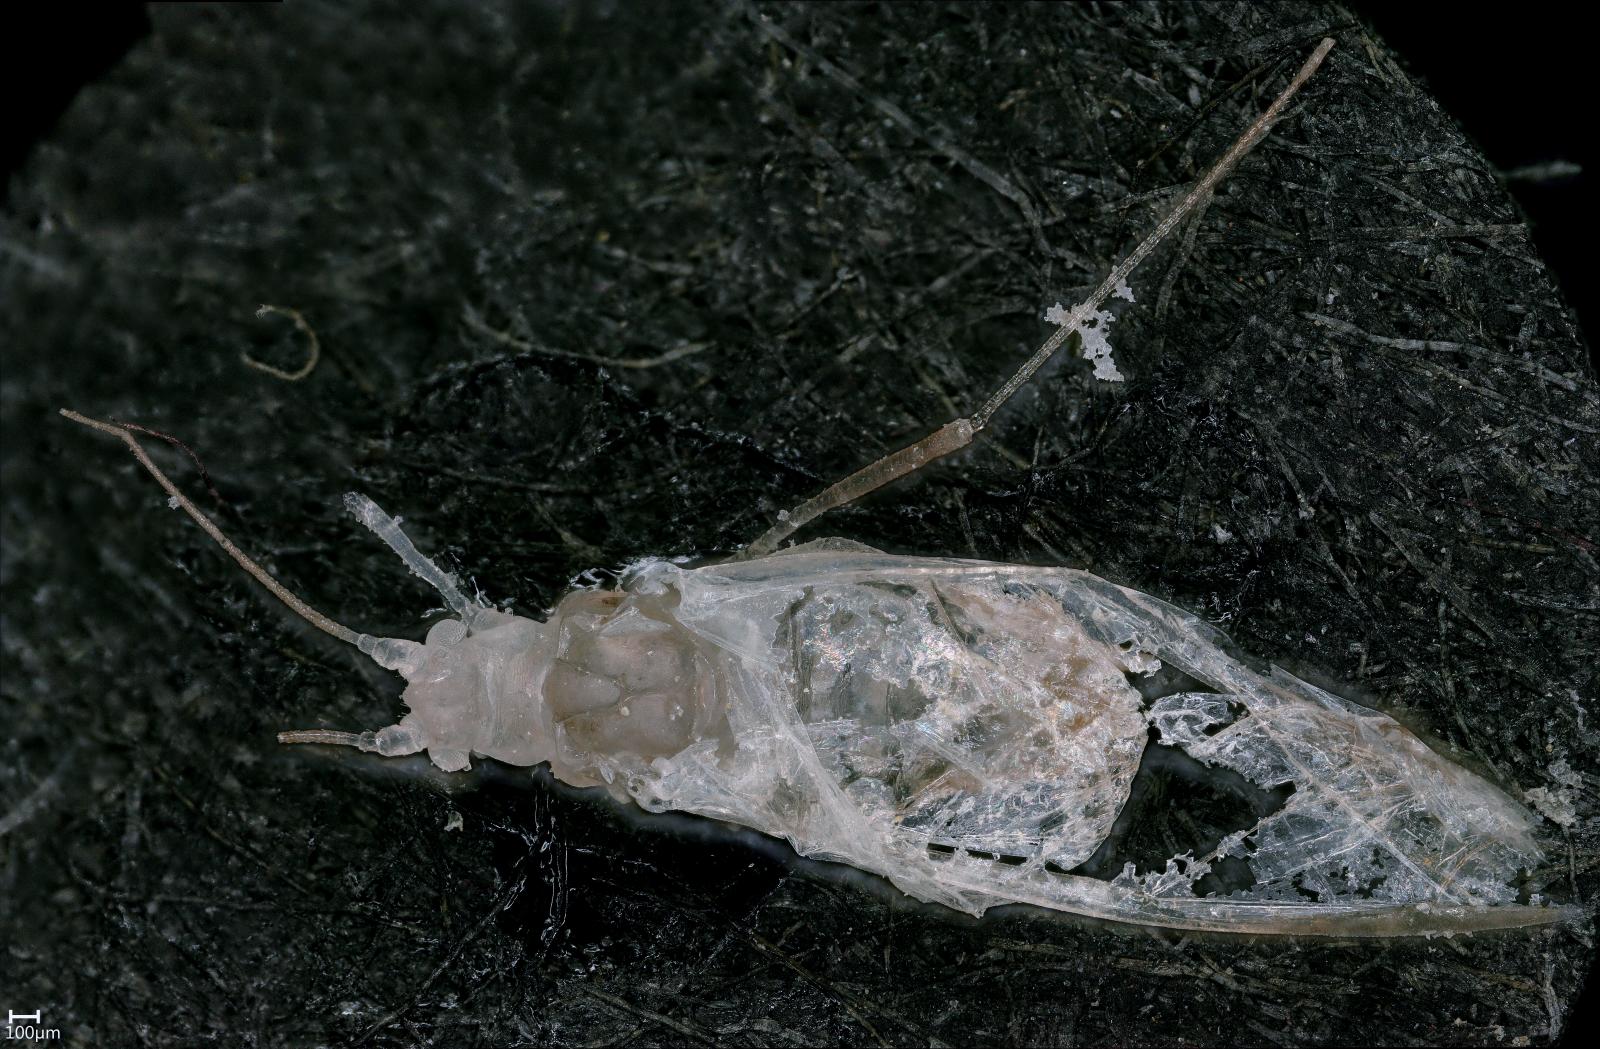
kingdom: Animalia
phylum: Arthropoda
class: Insecta
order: Hemiptera
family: Aphididae
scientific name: Aphididae
